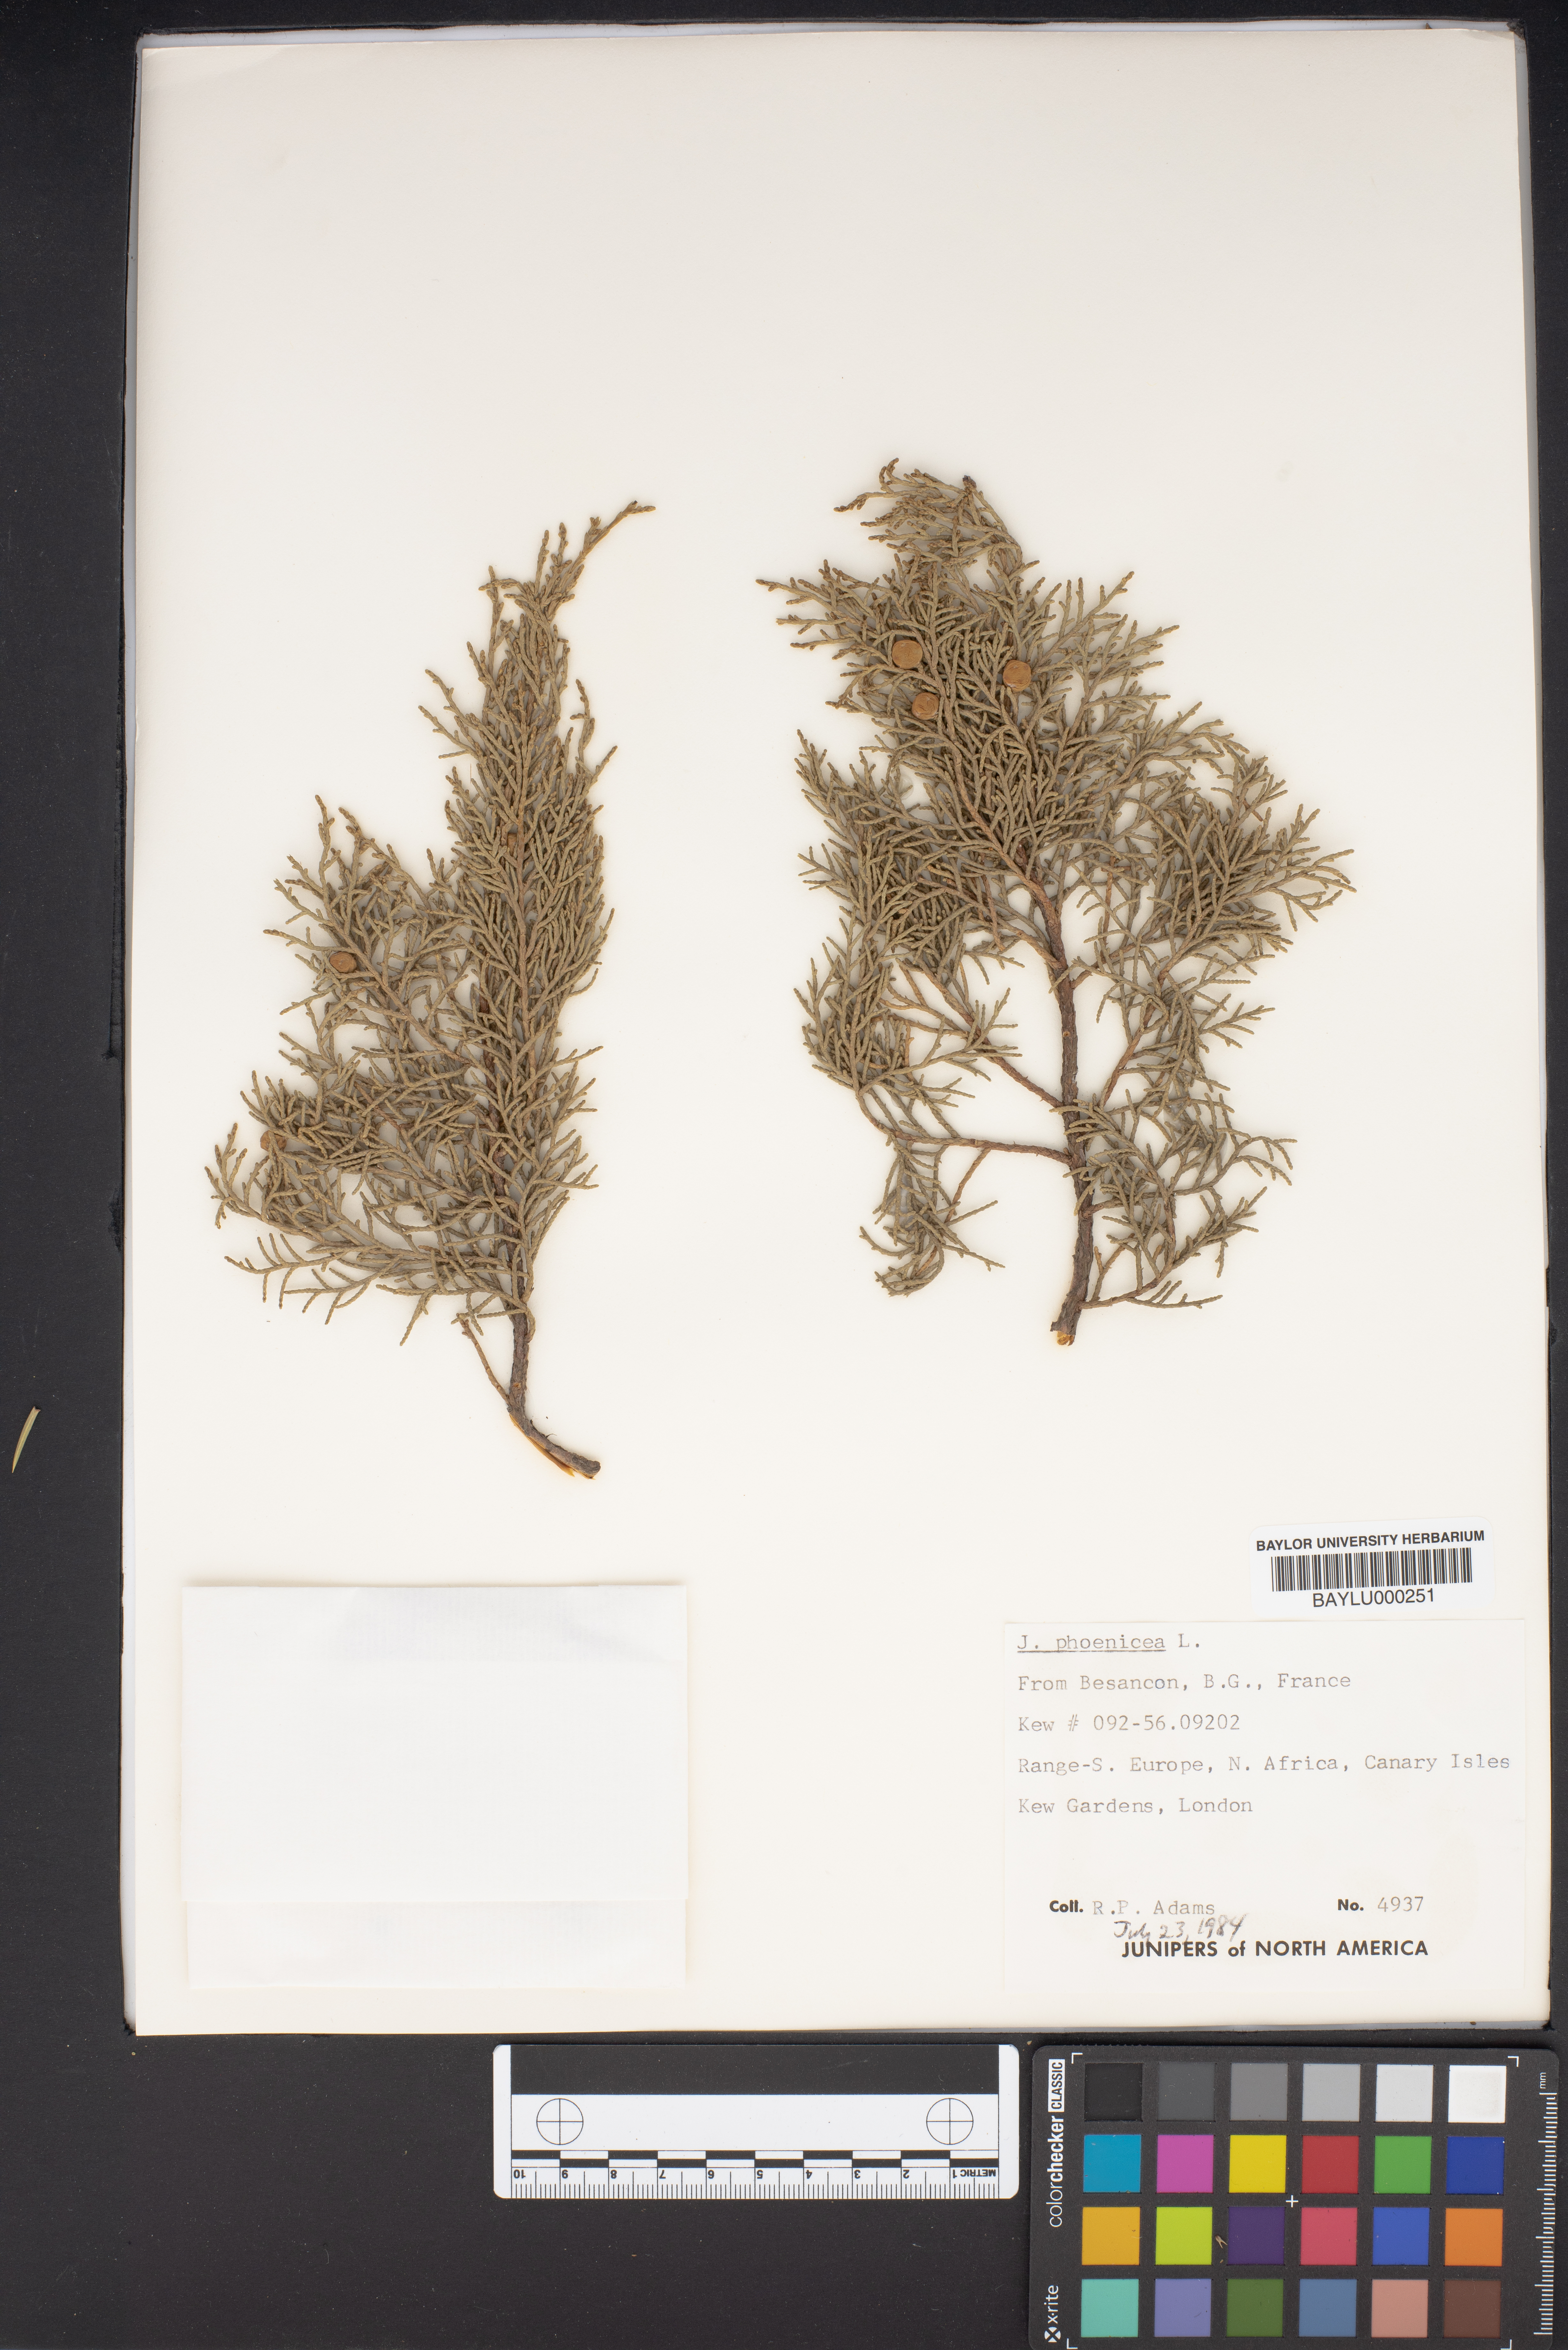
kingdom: Plantae
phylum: Tracheophyta
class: Pinopsida
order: Pinales
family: Cupressaceae
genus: Juniperus
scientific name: Juniperus phoenicea
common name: Phoenician juniper
